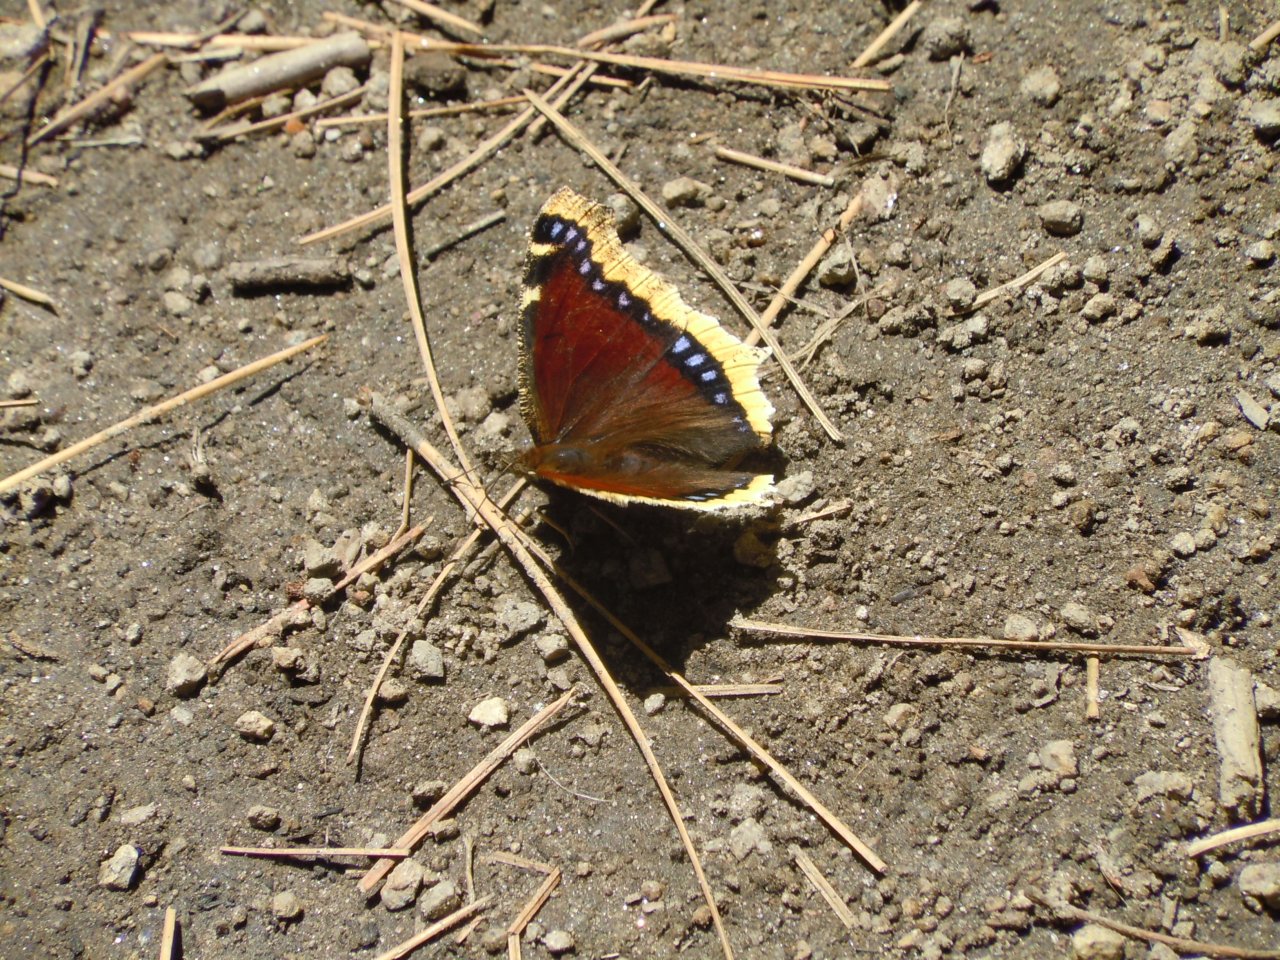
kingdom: Animalia
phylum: Arthropoda
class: Insecta
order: Lepidoptera
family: Nymphalidae
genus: Nymphalis
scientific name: Nymphalis antiopa
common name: Mourning Cloak
